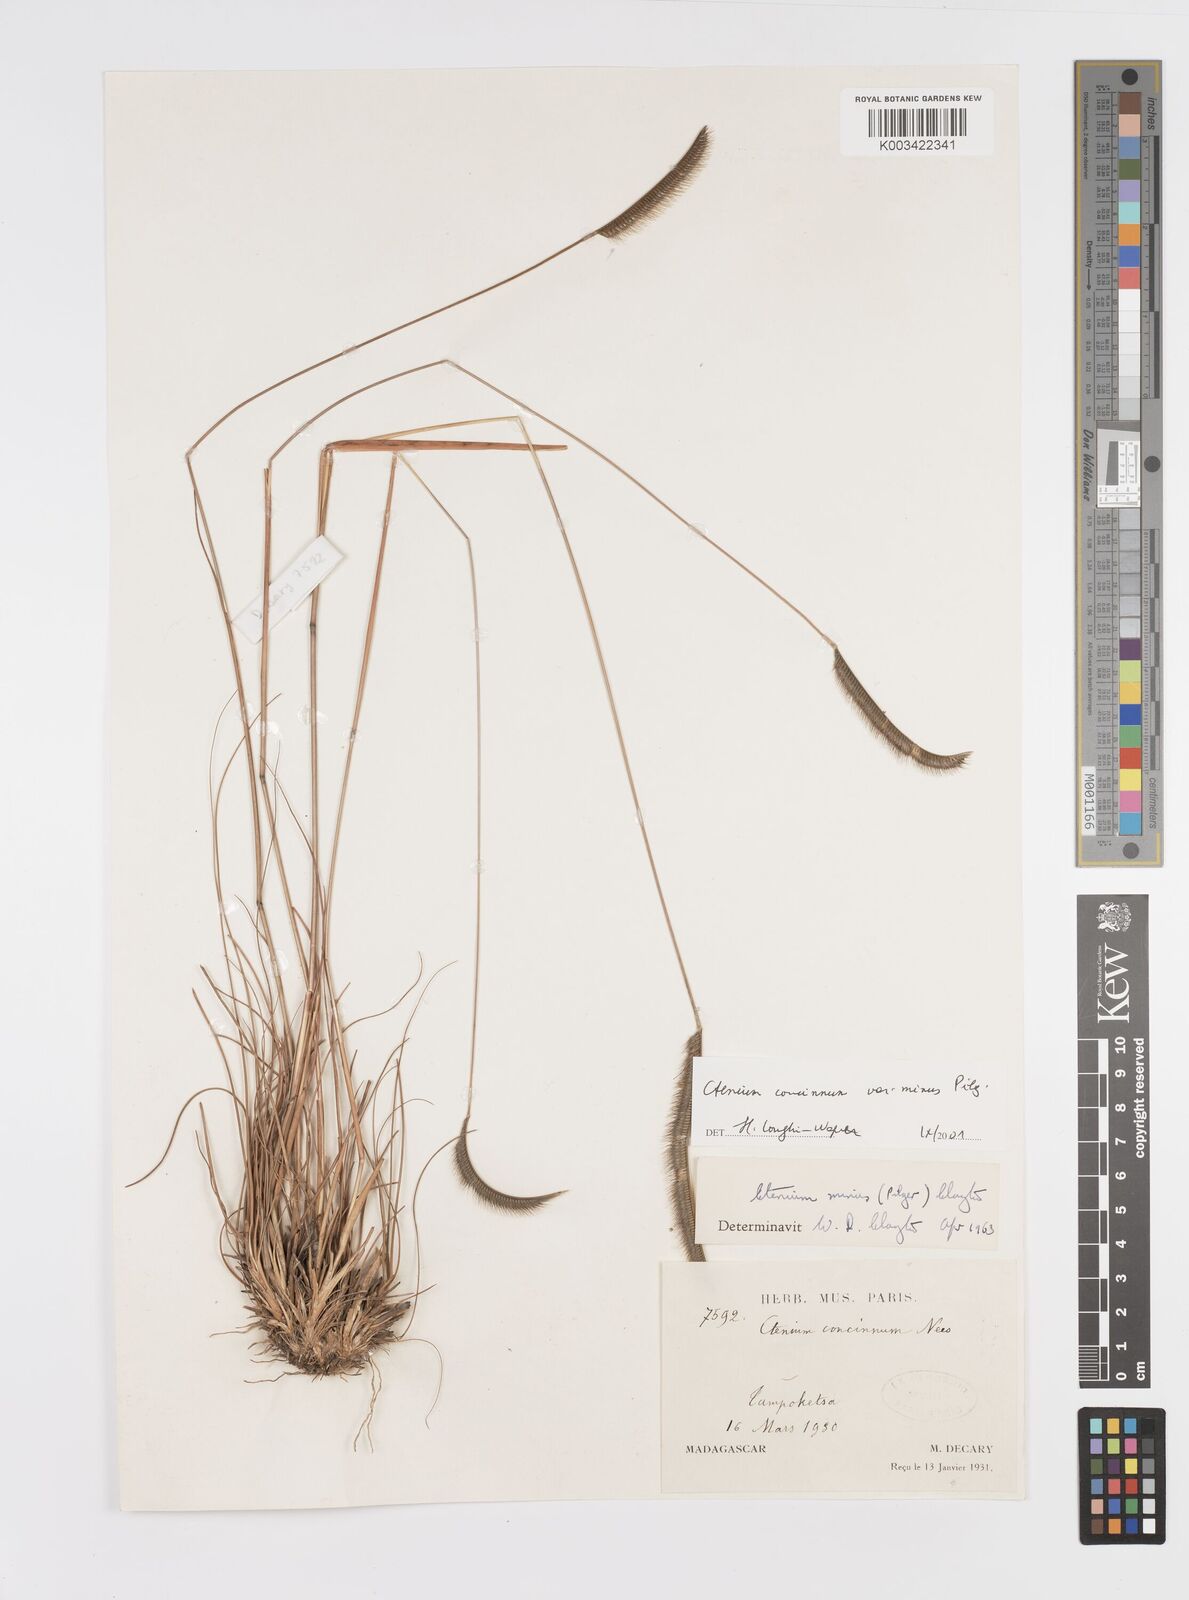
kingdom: Plantae
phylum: Tracheophyta
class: Liliopsida
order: Poales
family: Poaceae
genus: Ctenium
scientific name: Ctenium concinnum
